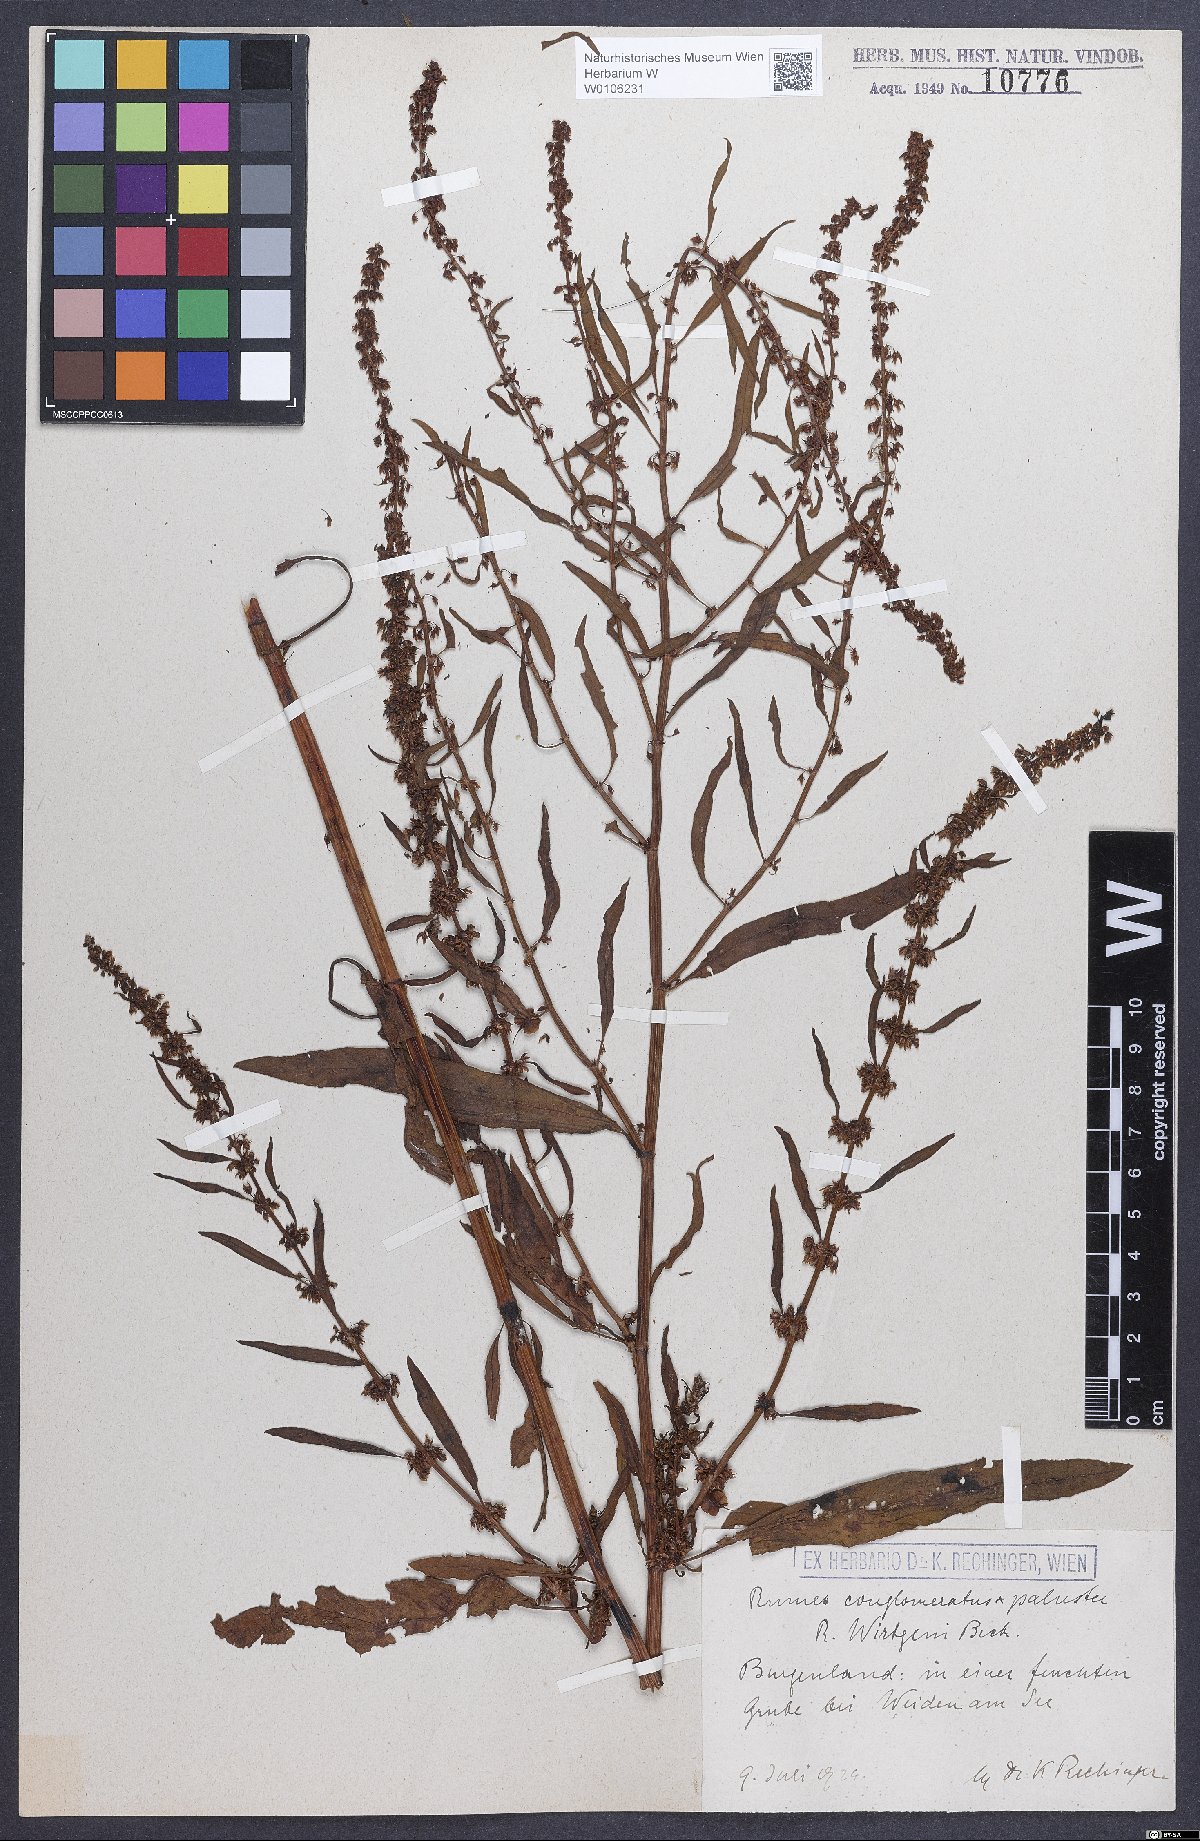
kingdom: Plantae
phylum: Tracheophyta
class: Magnoliopsida
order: Caryophyllales
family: Polygonaceae
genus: Rumex
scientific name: Rumex
